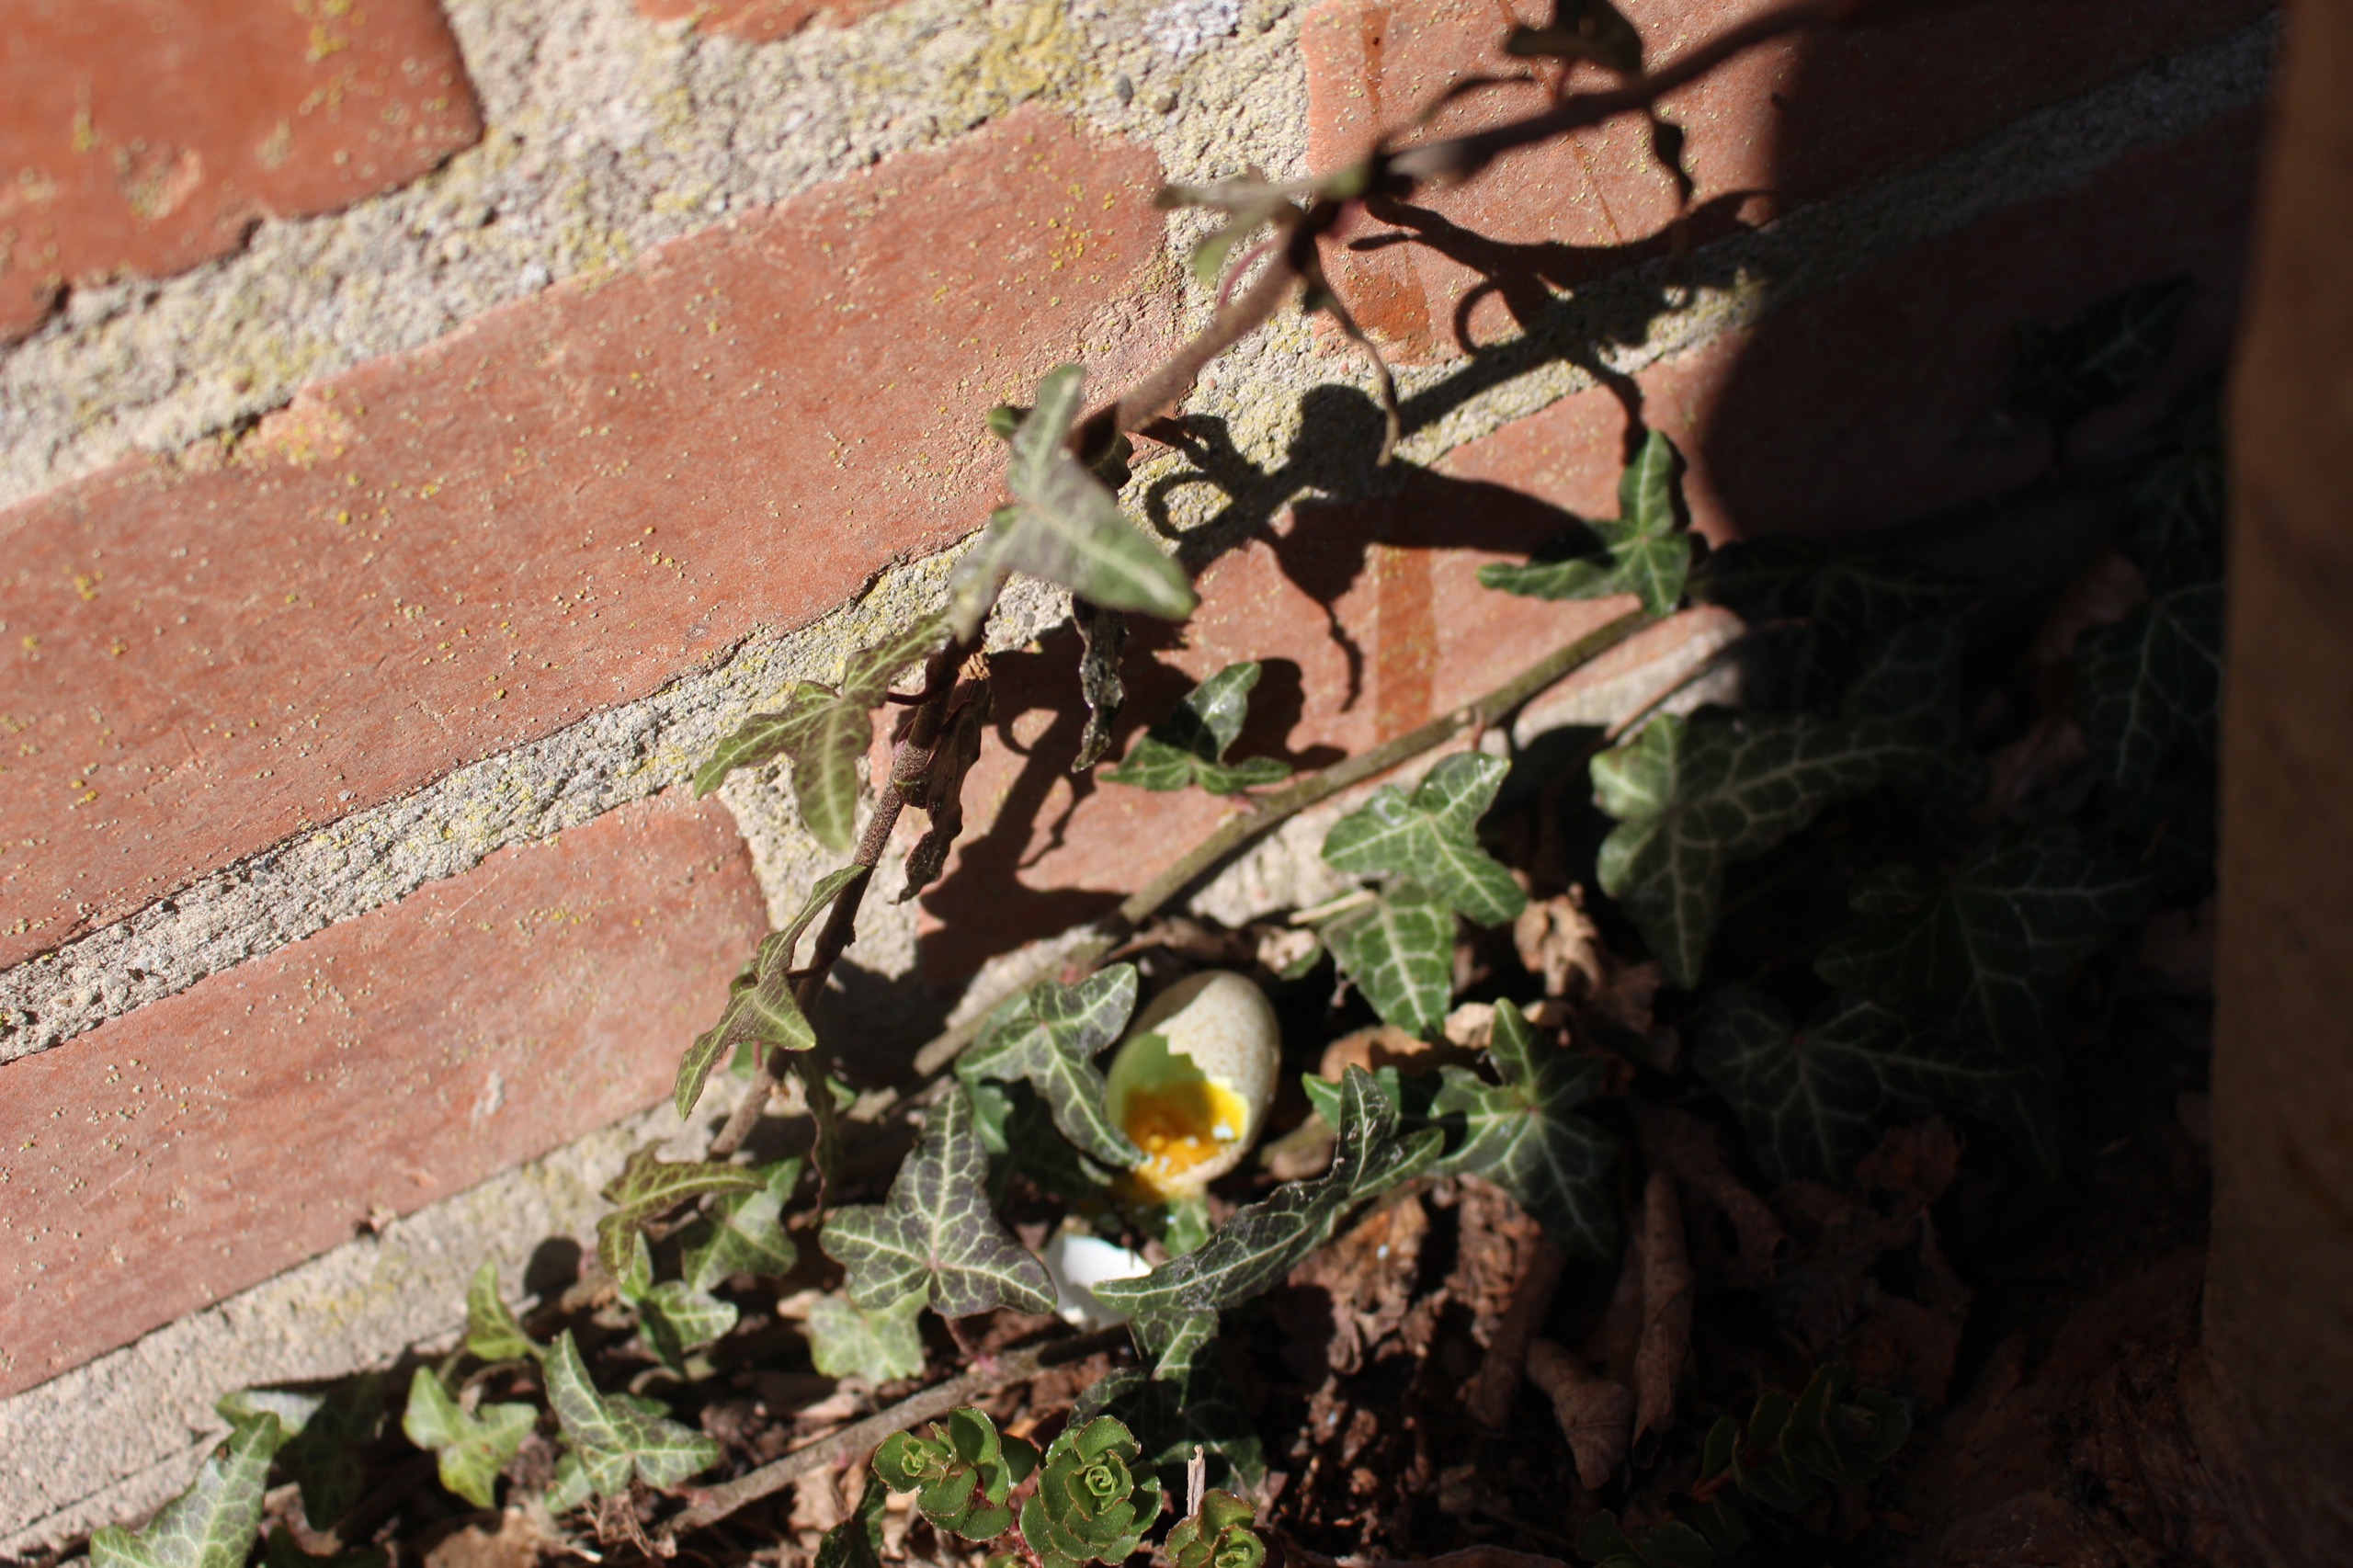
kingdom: Animalia
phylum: Chordata
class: Aves
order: Passeriformes
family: Turdidae
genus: Turdus
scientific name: Turdus merula
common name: Solsort
